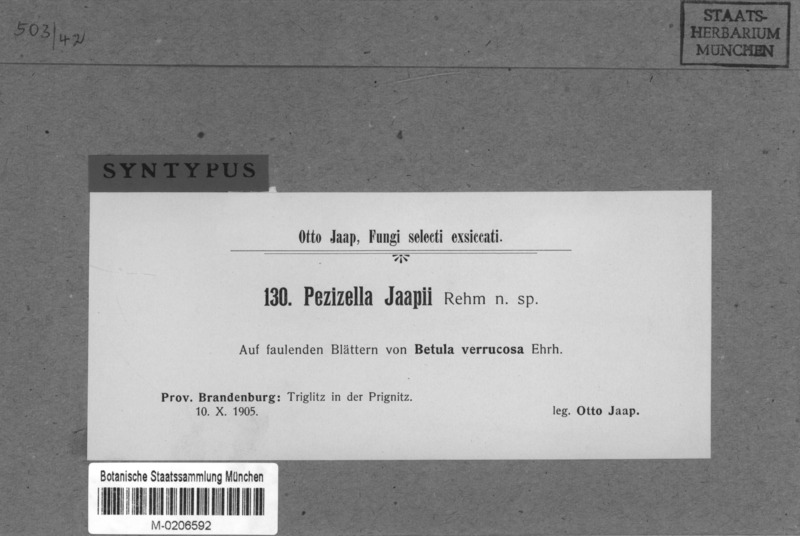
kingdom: Fungi
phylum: Ascomycota
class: Leotiomycetes
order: Helotiales
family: Pezizellaceae
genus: Calycellina
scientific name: Calycellina lachnobrachya
